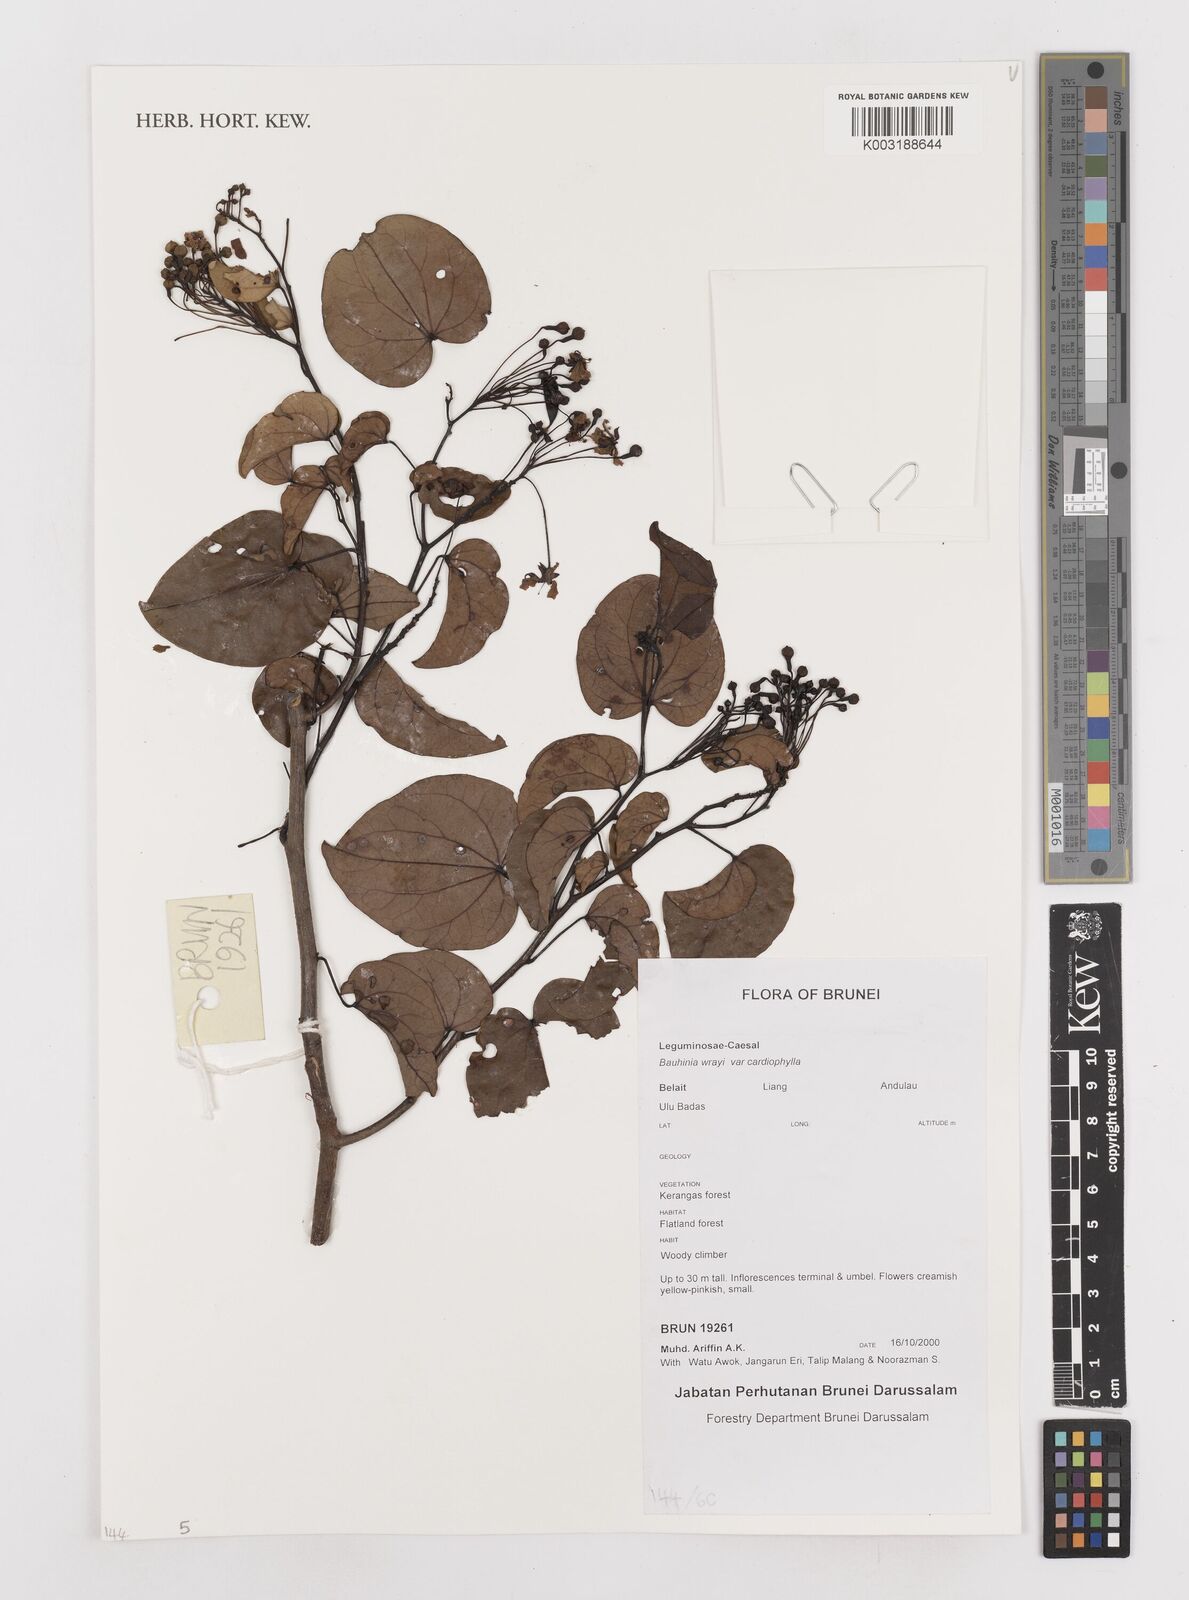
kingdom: Plantae
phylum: Tracheophyta
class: Magnoliopsida
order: Fabales
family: Fabaceae
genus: Phanera
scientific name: Phanera wrayi
